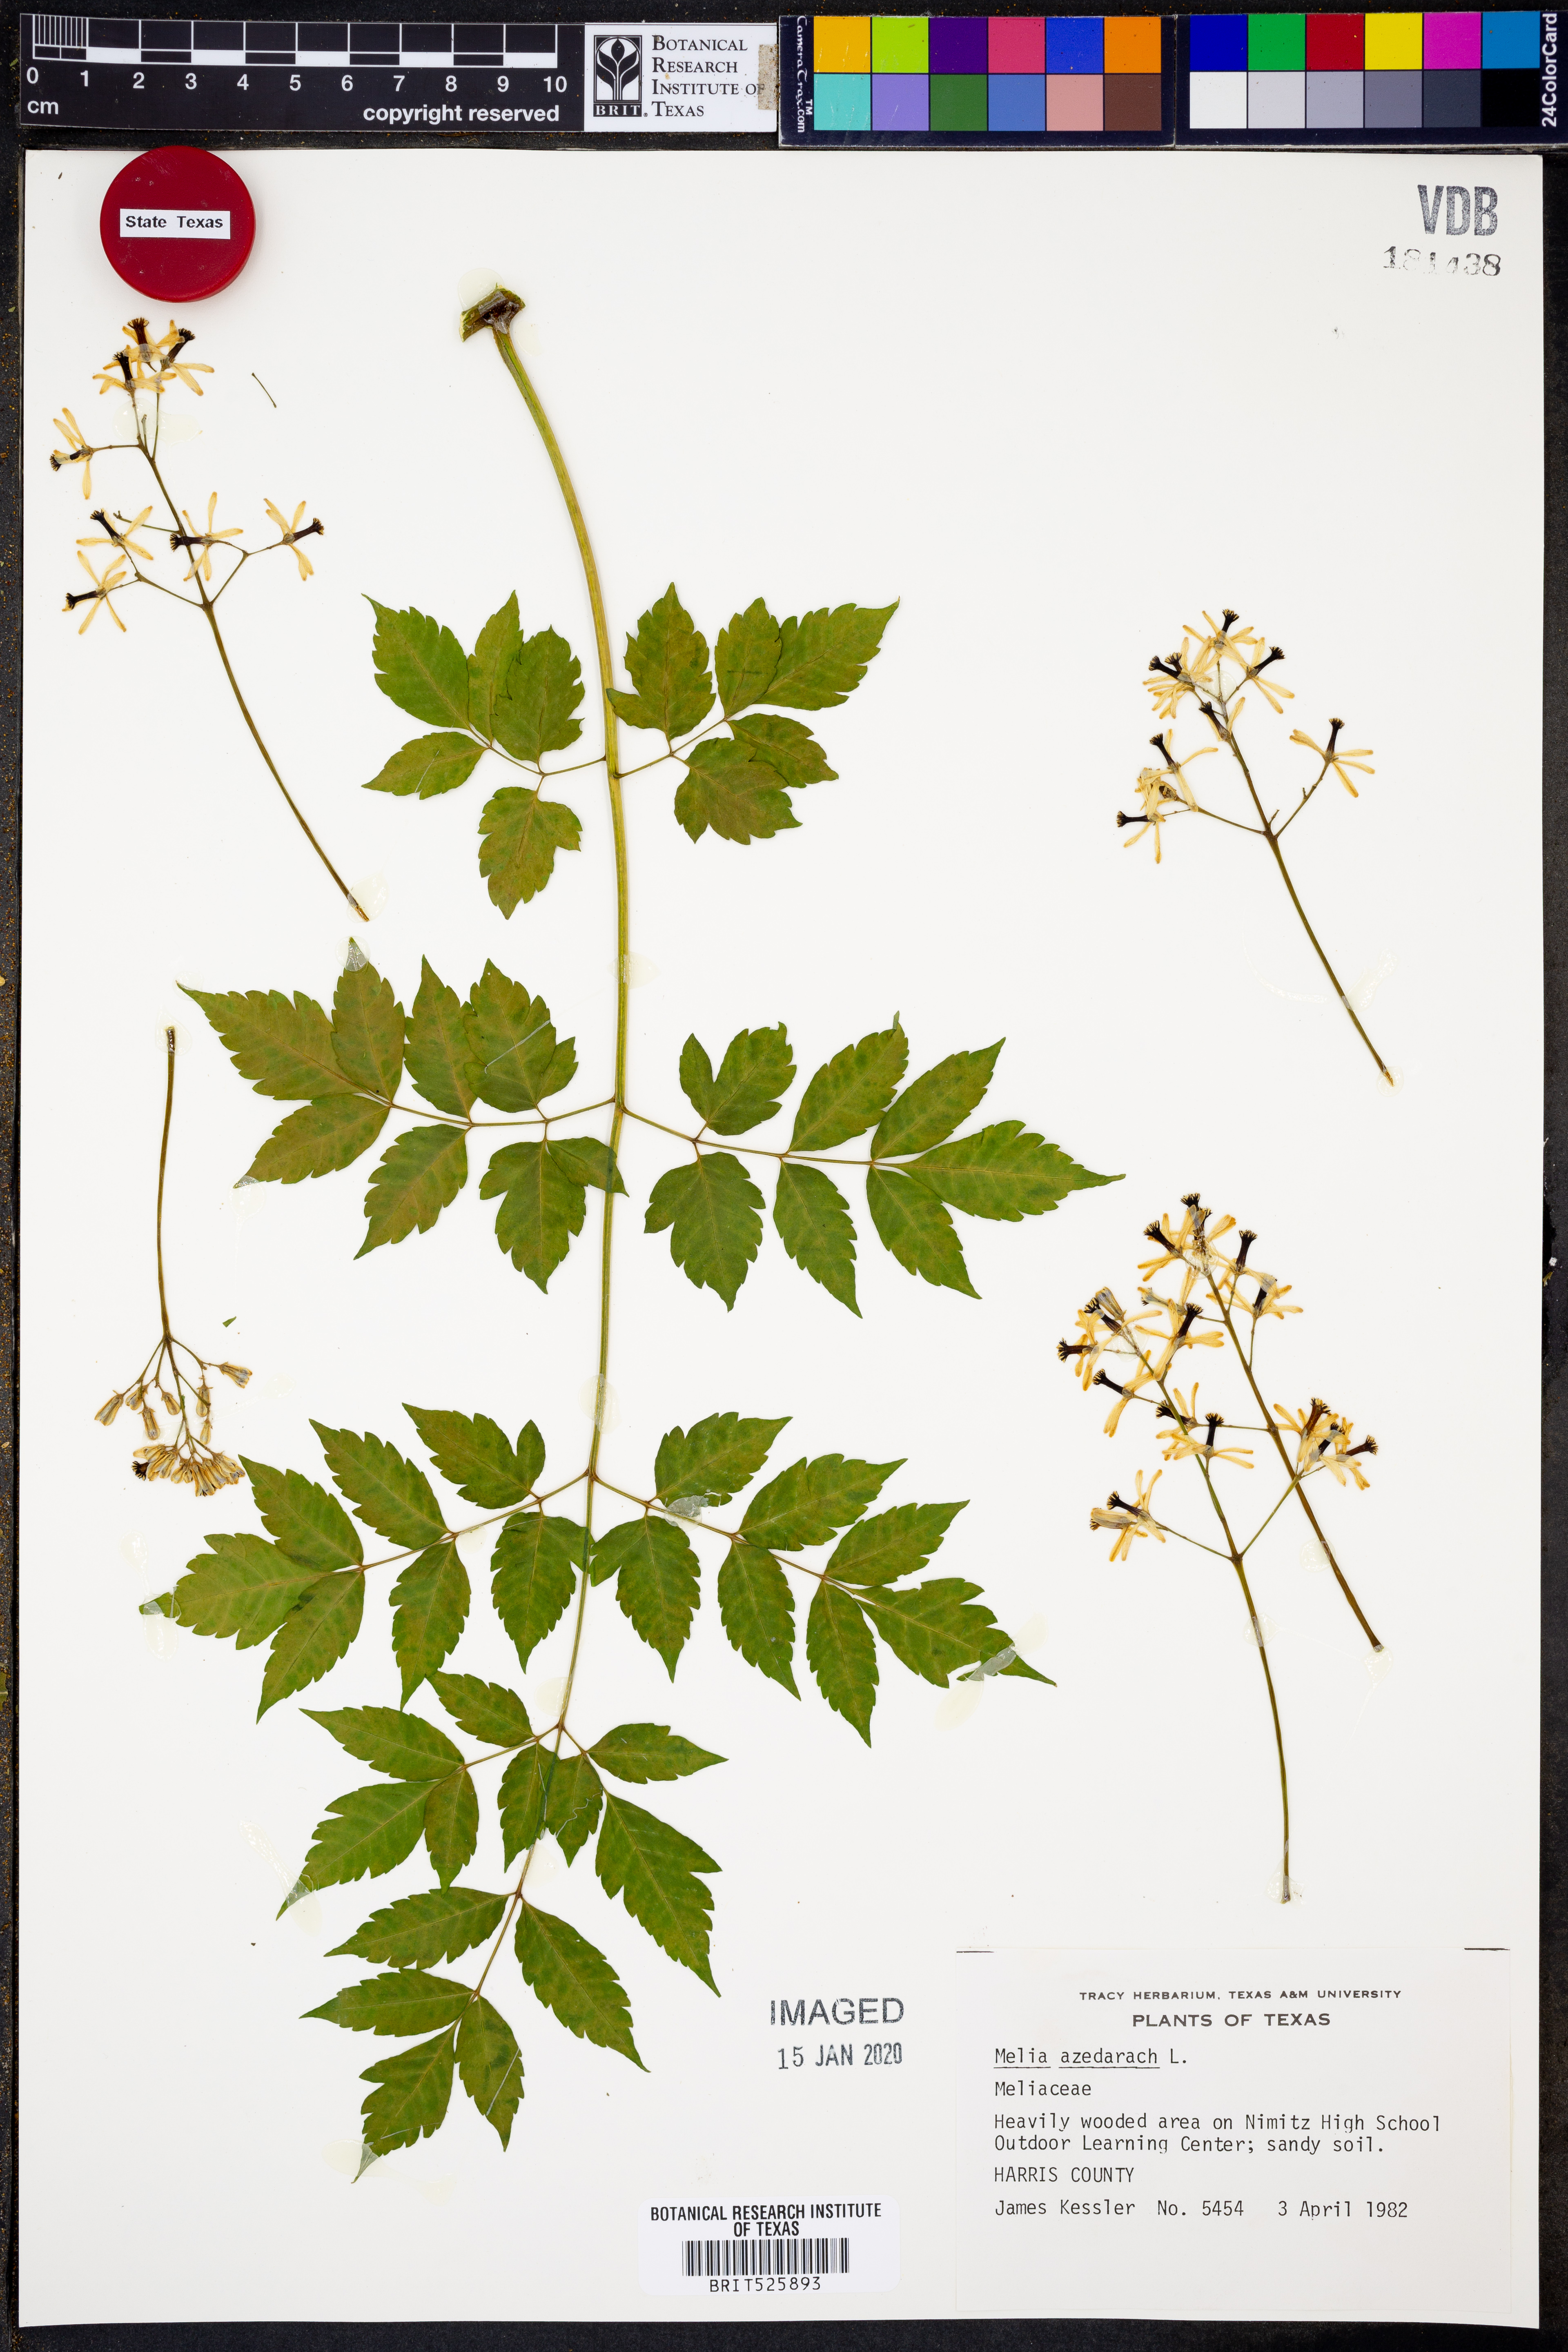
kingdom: Plantae
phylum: Tracheophyta
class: Magnoliopsida
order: Sapindales
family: Meliaceae
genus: Melia
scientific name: Melia azedarach
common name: Chinaberrytree
